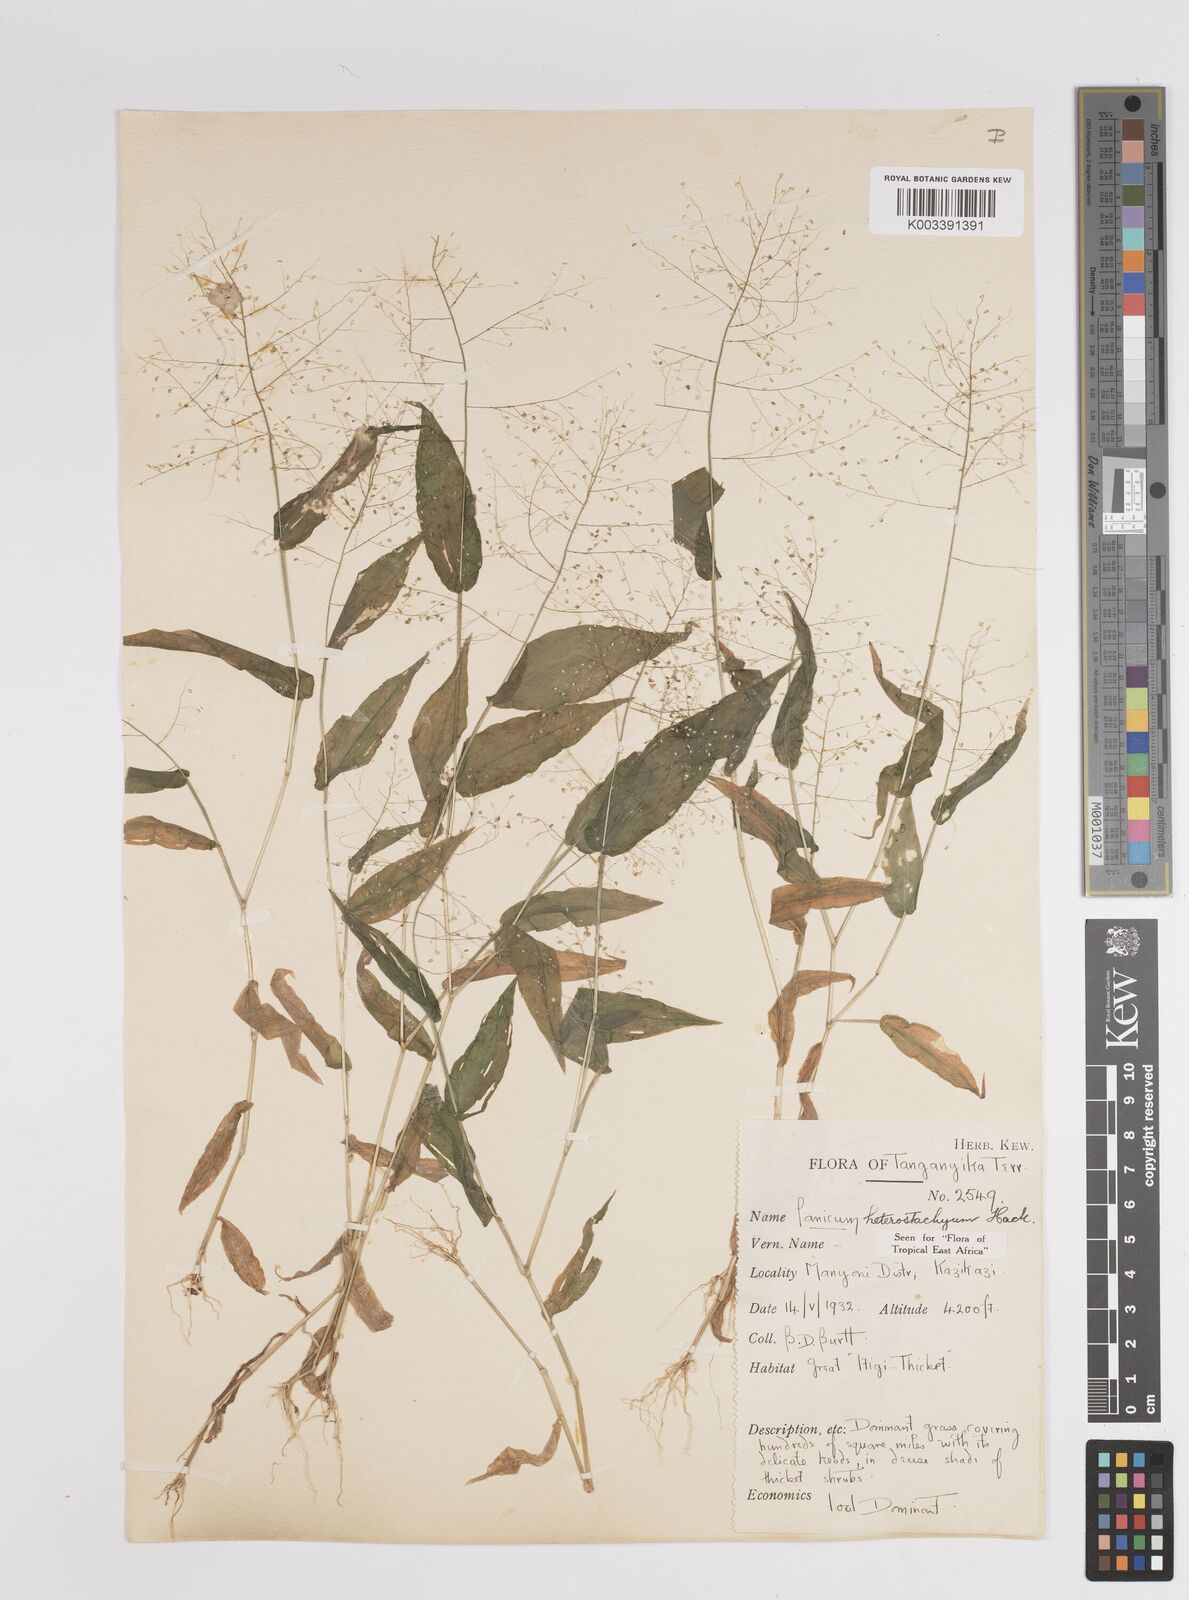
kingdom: Plantae
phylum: Tracheophyta
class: Liliopsida
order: Poales
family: Poaceae
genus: Panicum
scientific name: Panicum hirtum
